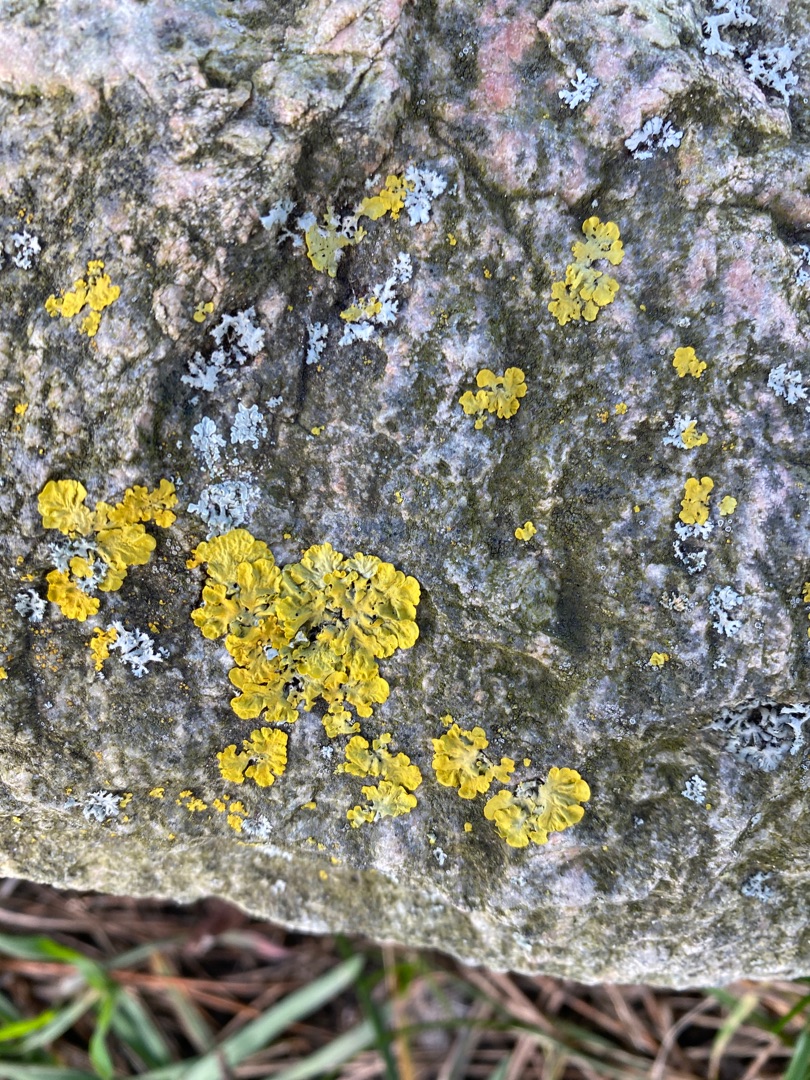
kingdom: Fungi
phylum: Ascomycota
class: Lecanoromycetes
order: Teloschistales
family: Teloschistaceae
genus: Xanthoria
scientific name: Xanthoria parietina
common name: Almindelig væggelav
